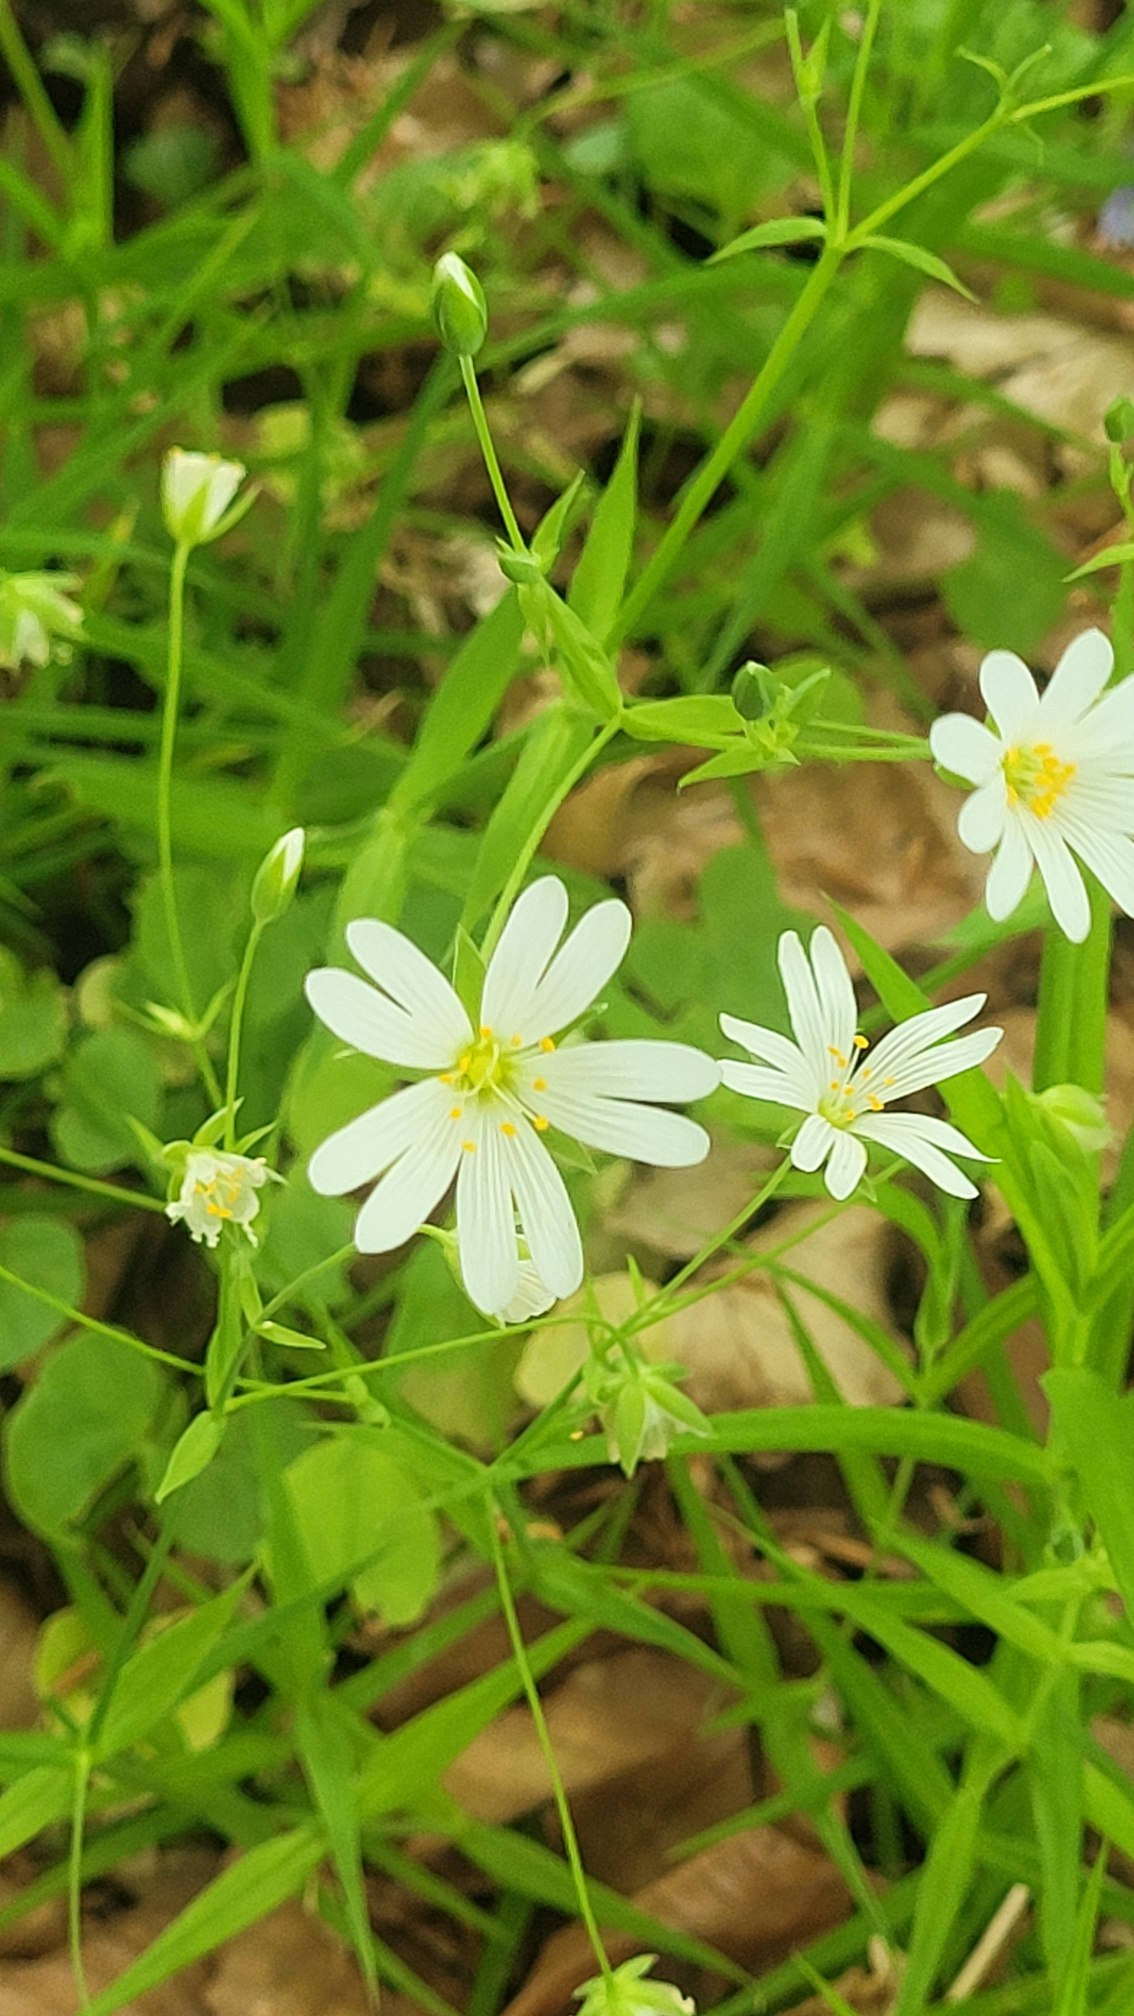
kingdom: Plantae
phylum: Tracheophyta
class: Magnoliopsida
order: Caryophyllales
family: Caryophyllaceae
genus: Rabelera
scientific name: Rabelera holostea
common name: Stor fladstjerne
